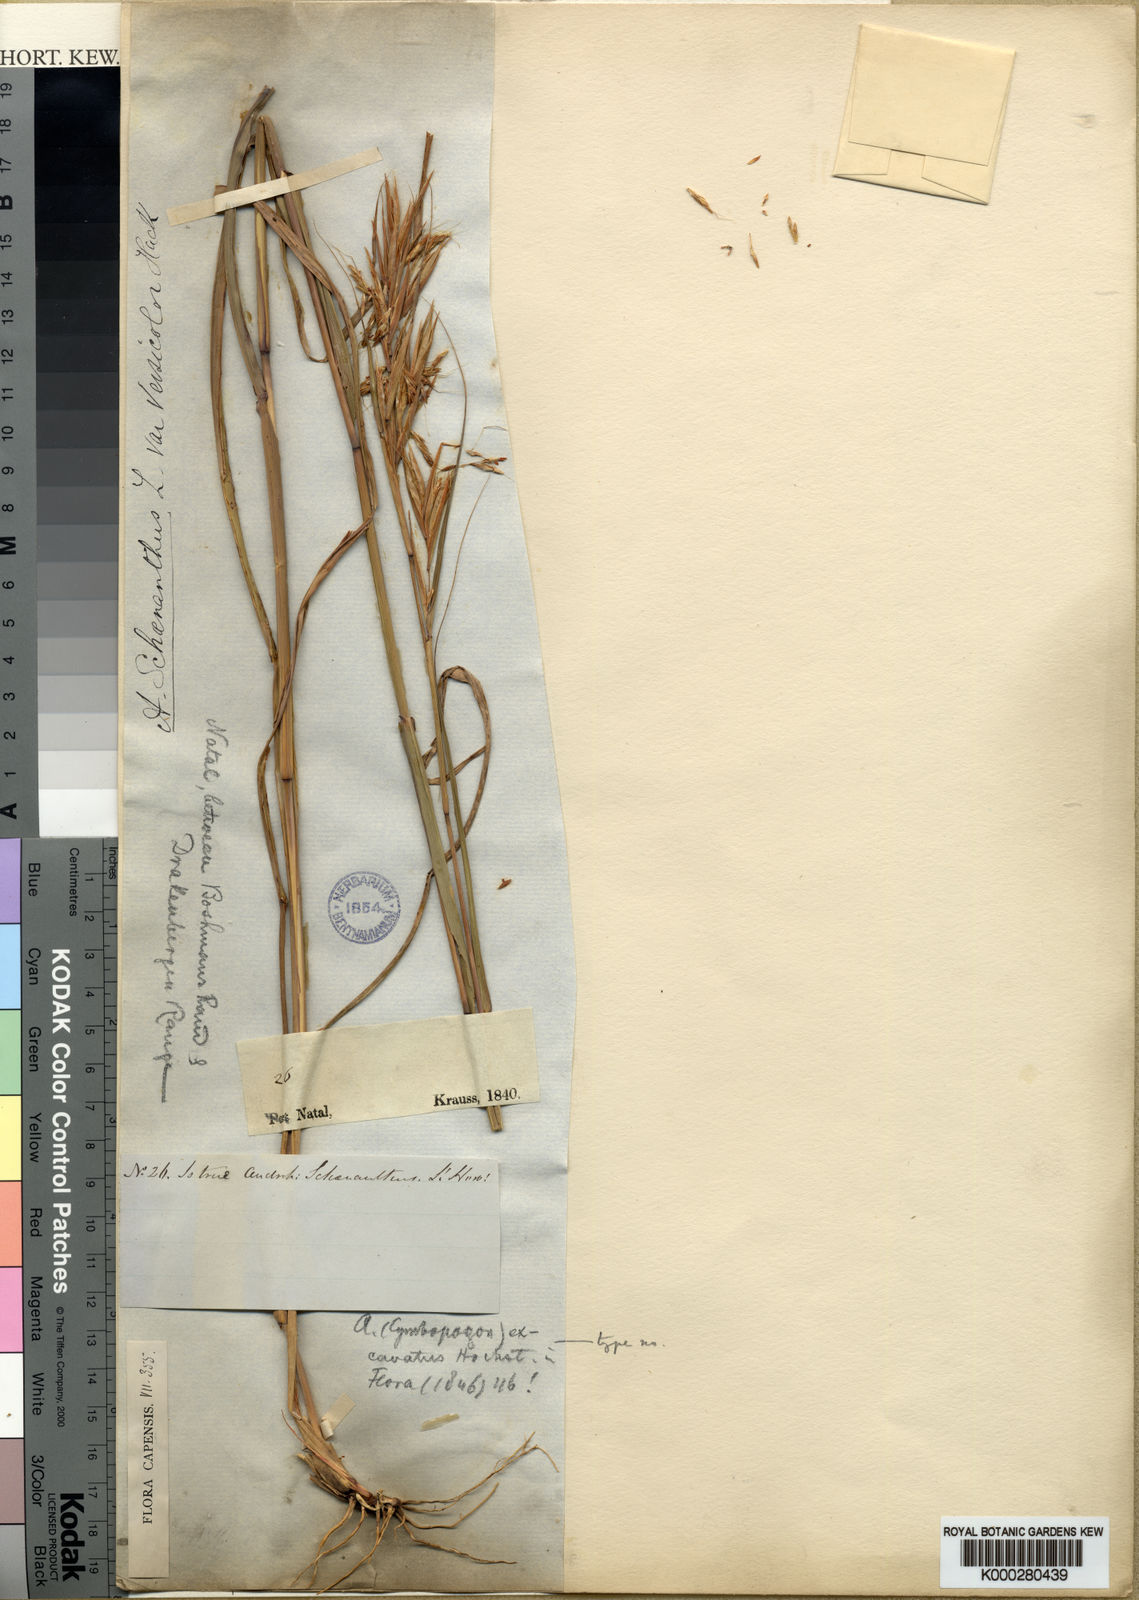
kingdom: Plantae
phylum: Tracheophyta
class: Liliopsida
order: Poales
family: Poaceae
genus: Cymbopogon
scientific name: Cymbopogon caesius
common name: Kachi grass
